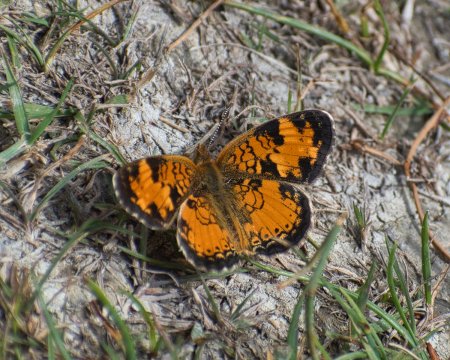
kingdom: Animalia
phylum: Arthropoda
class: Insecta
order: Lepidoptera
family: Nymphalidae
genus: Phyciodes
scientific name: Phyciodes tharos
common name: Northern Crescent
